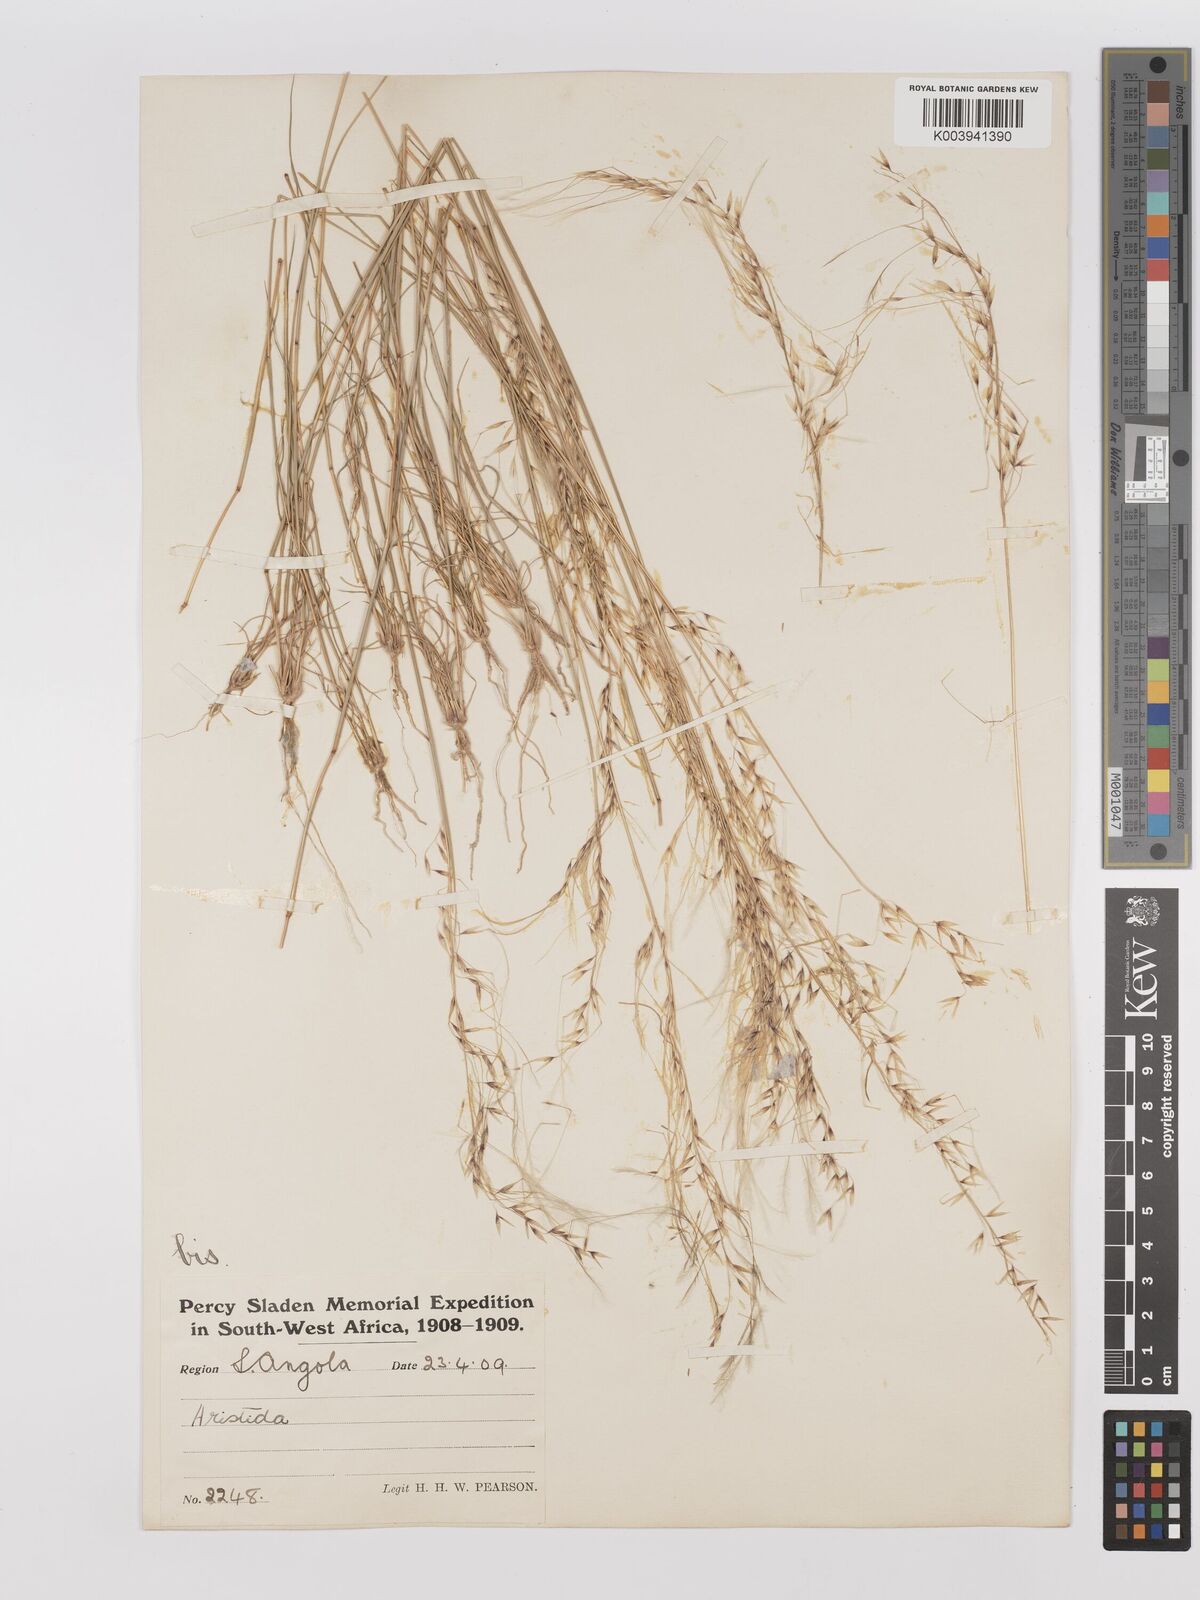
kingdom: Plantae
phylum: Tracheophyta
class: Liliopsida
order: Poales
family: Poaceae
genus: Stipagrostis
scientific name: Stipagrostis prodigiosa
